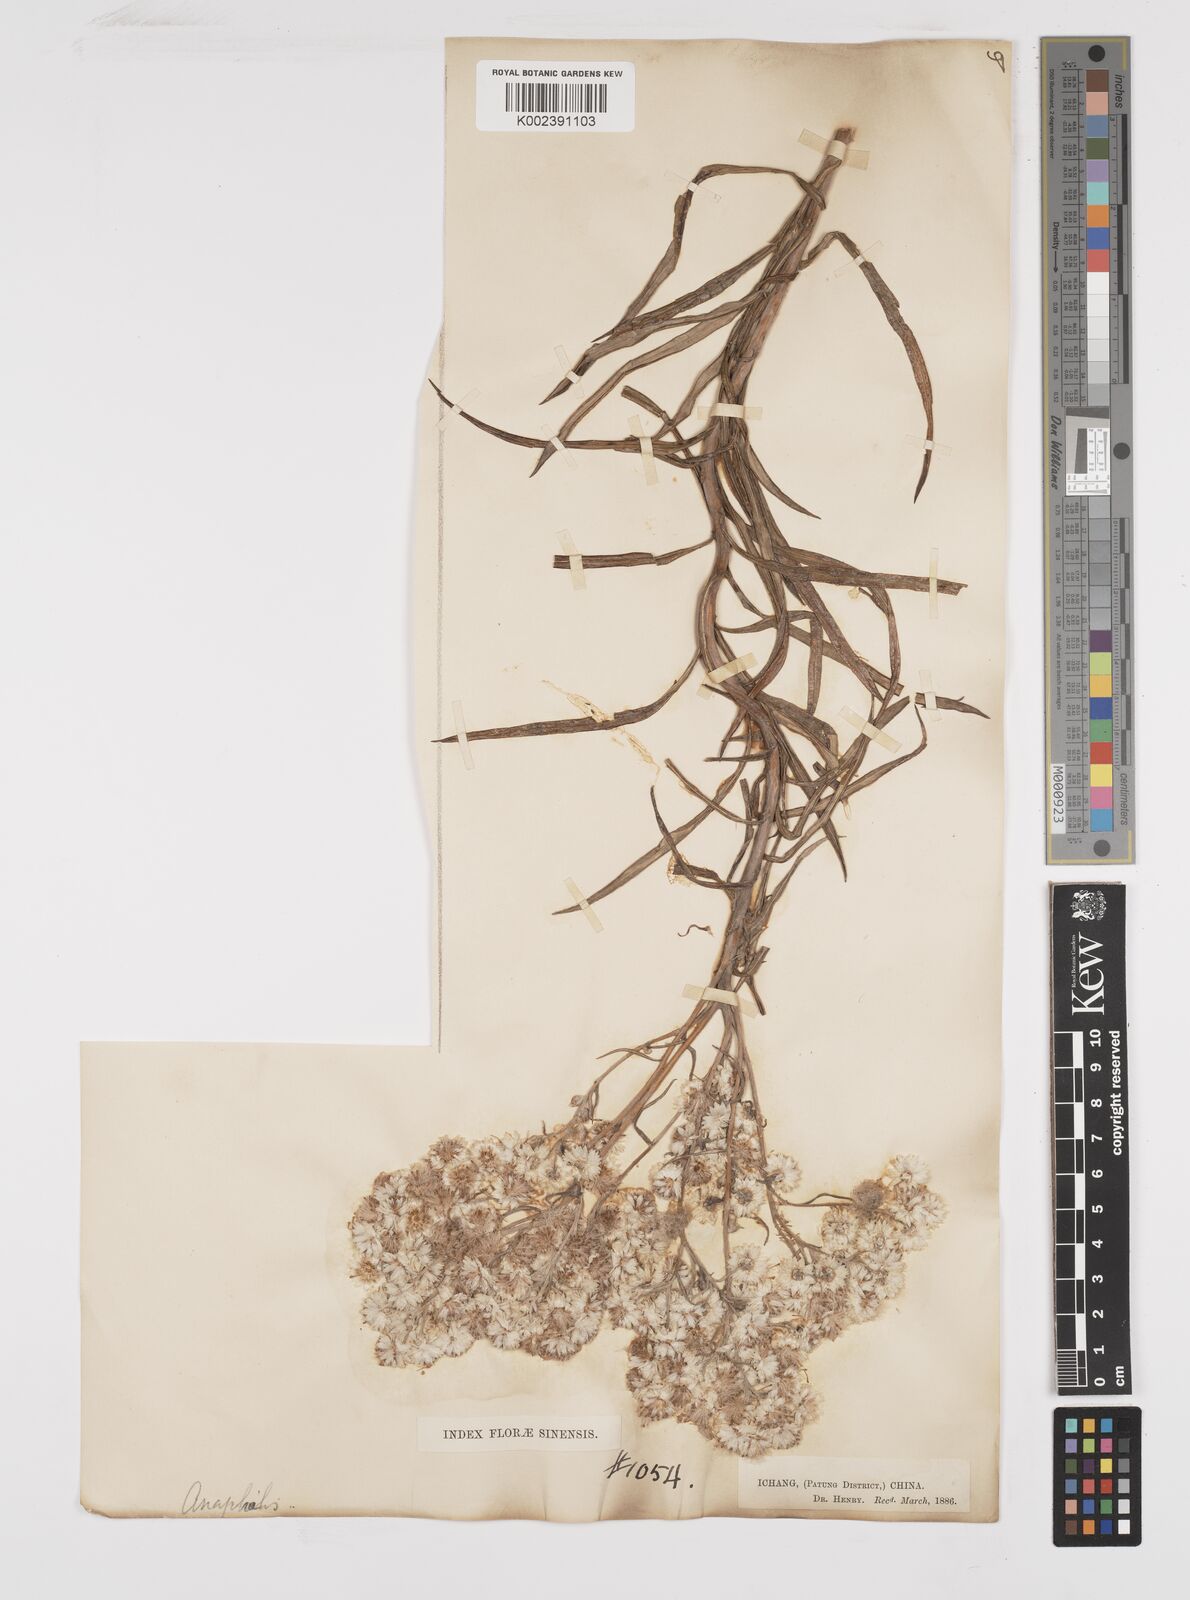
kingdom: Plantae
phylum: Tracheophyta
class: Magnoliopsida
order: Asterales
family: Asteraceae
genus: Anaphalis
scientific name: Anaphalis margaritacea
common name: Pearly everlasting
